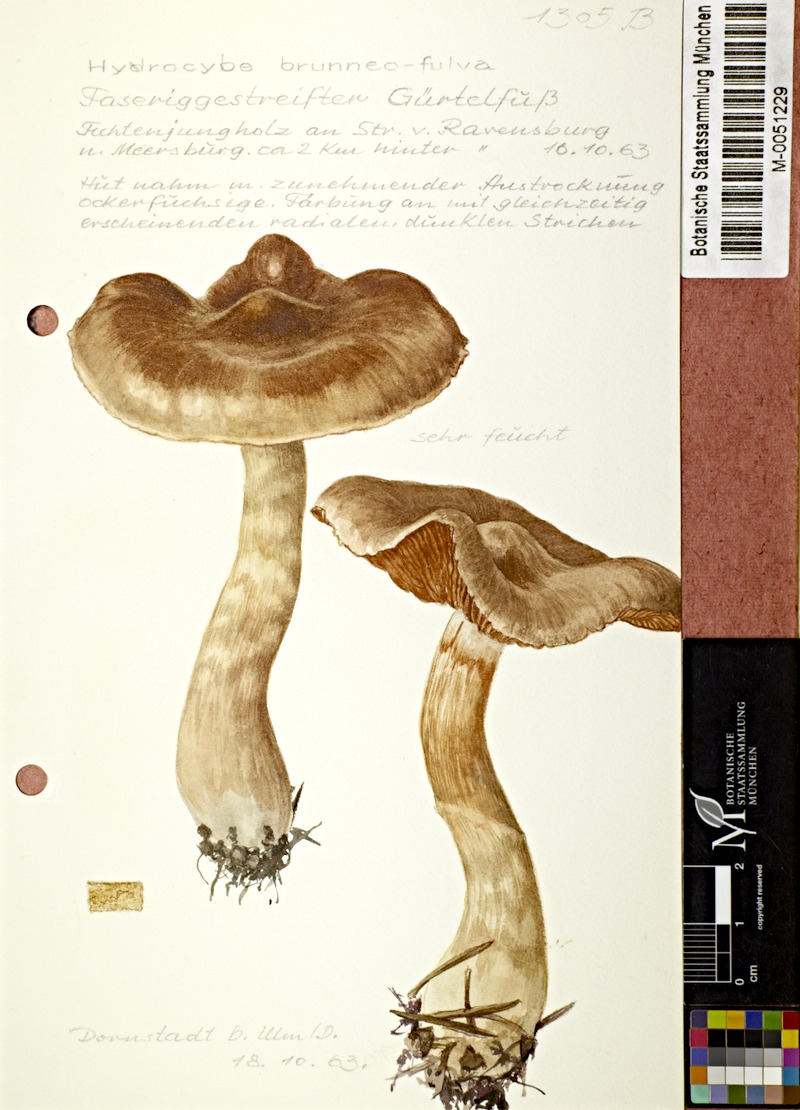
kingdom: Fungi
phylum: Basidiomycota
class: Agaricomycetes
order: Agaricales
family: Cortinariaceae
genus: Cortinarius
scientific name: Cortinarius brunneofulvus
